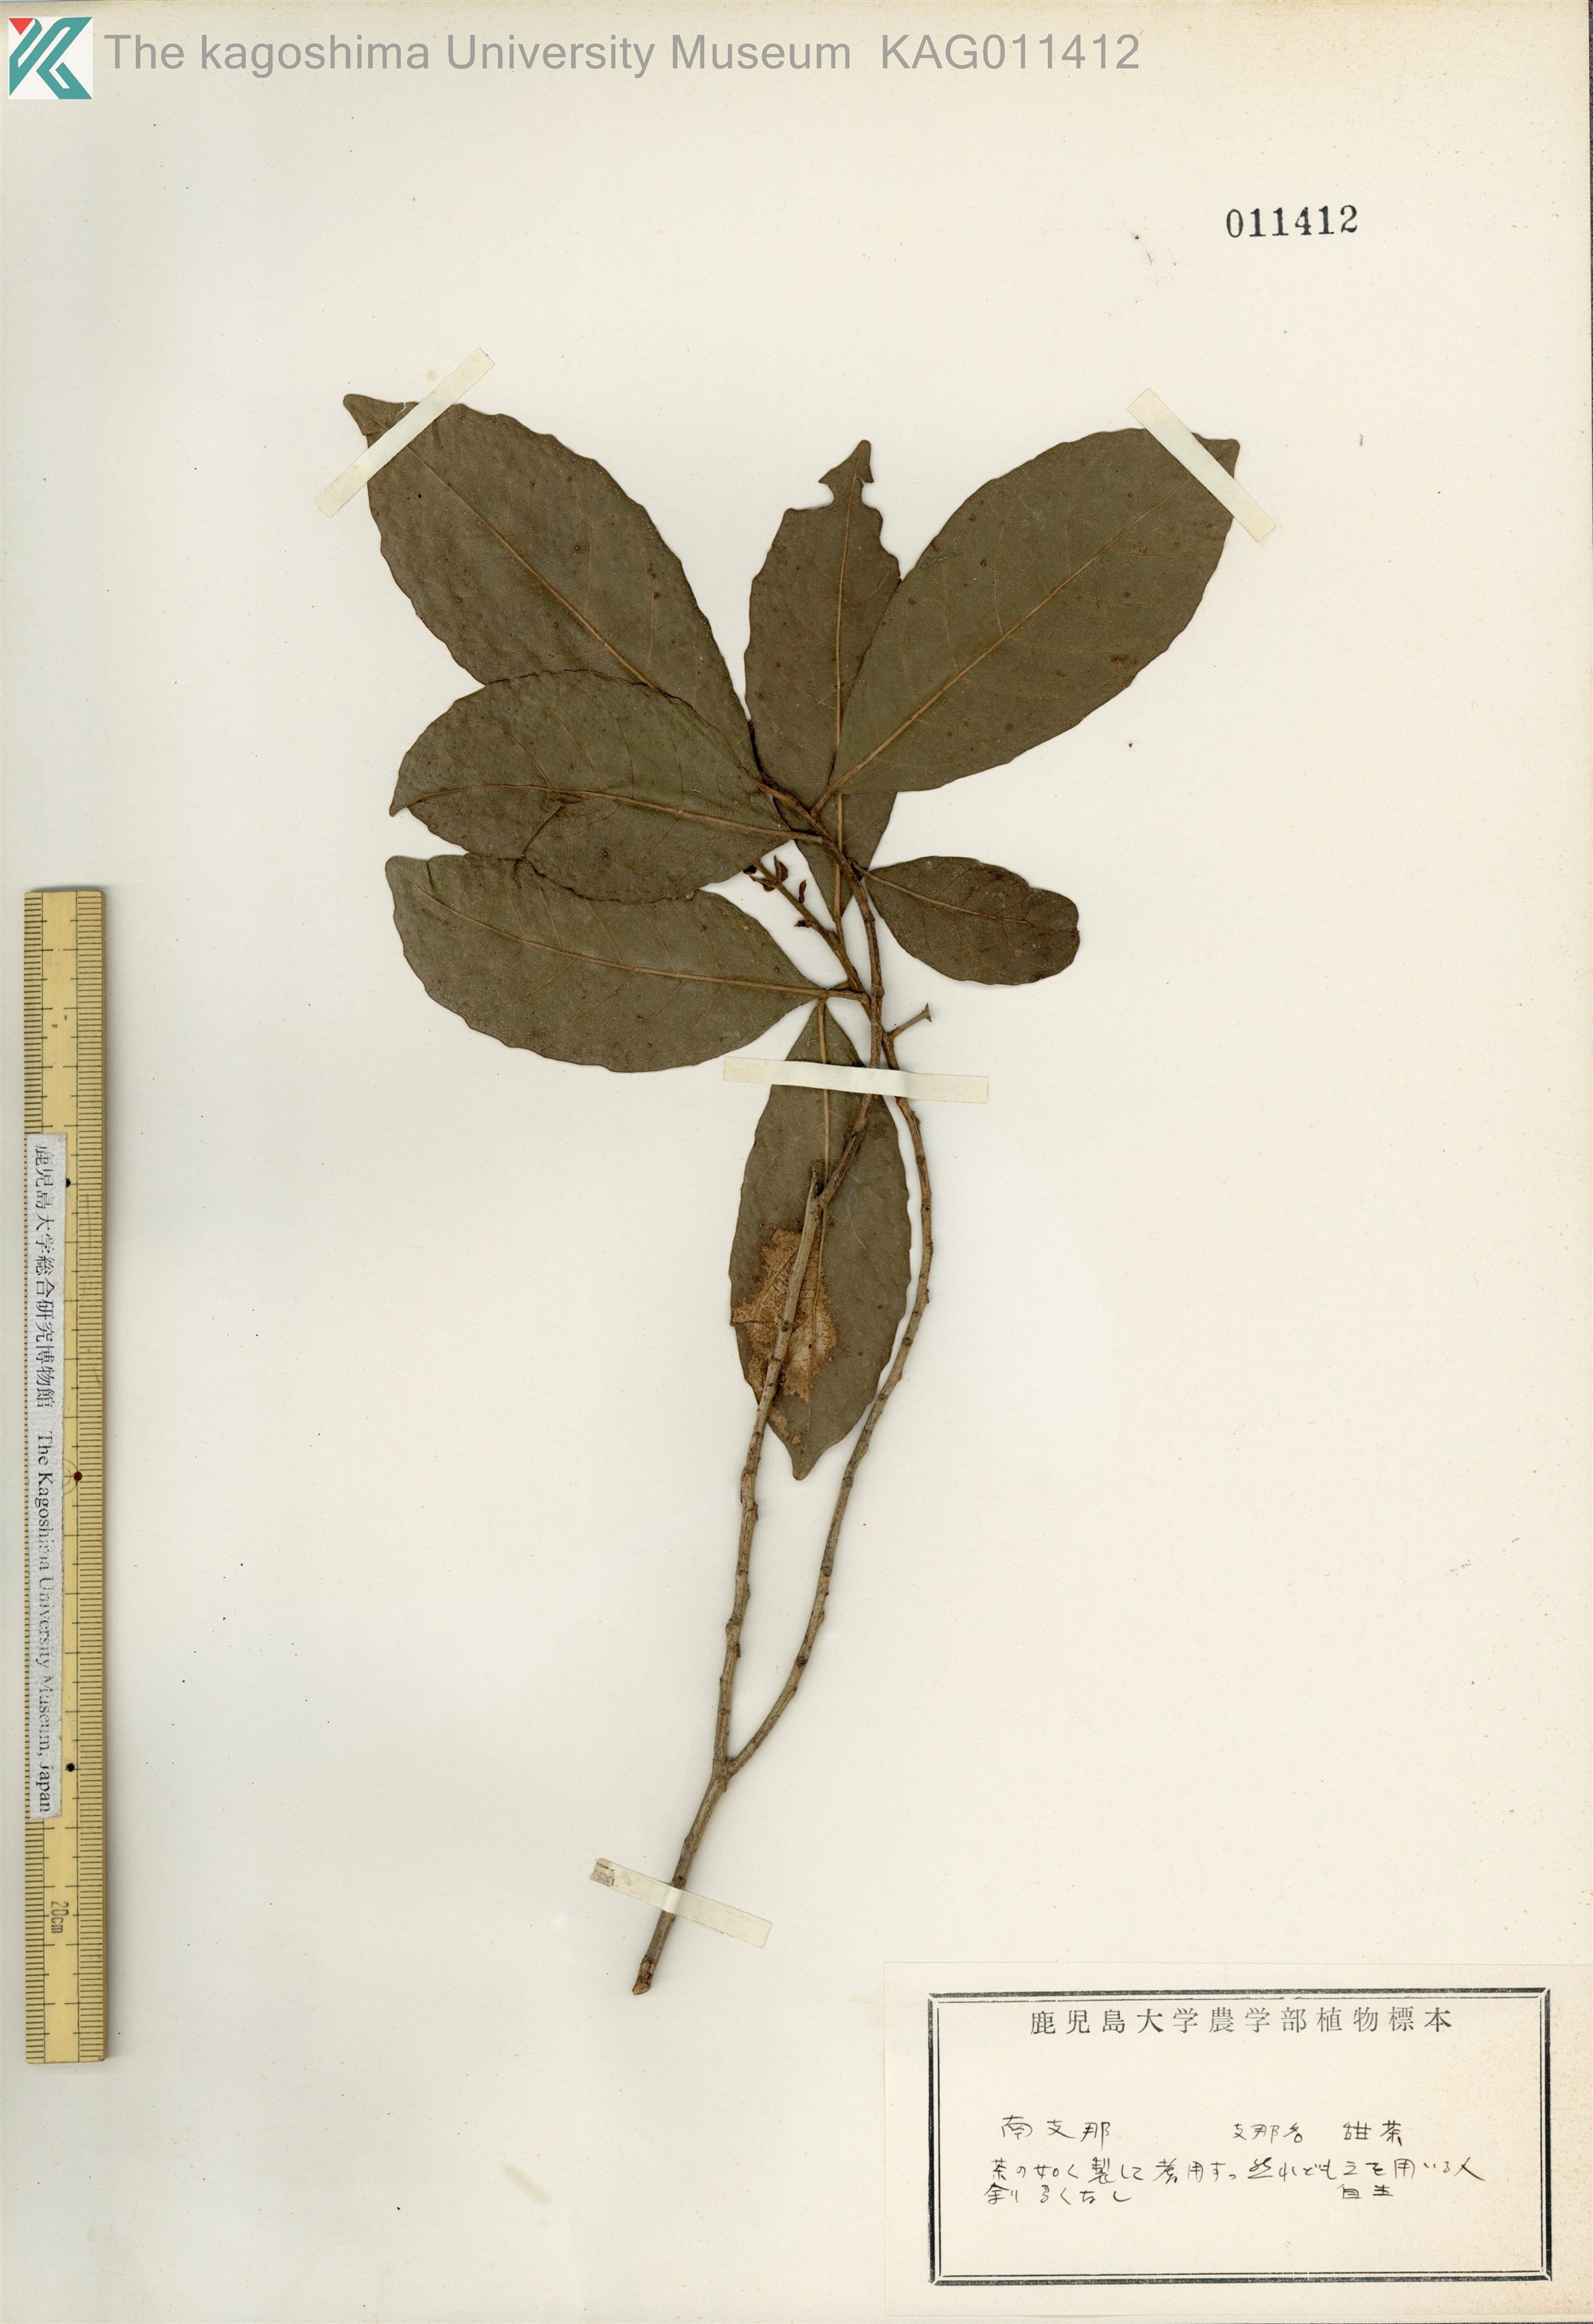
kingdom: Plantae
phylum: Tracheophyta
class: Magnoliopsida
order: Malpighiales
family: Phyllanthaceae
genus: Aporosa
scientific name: Aporosa octandra
